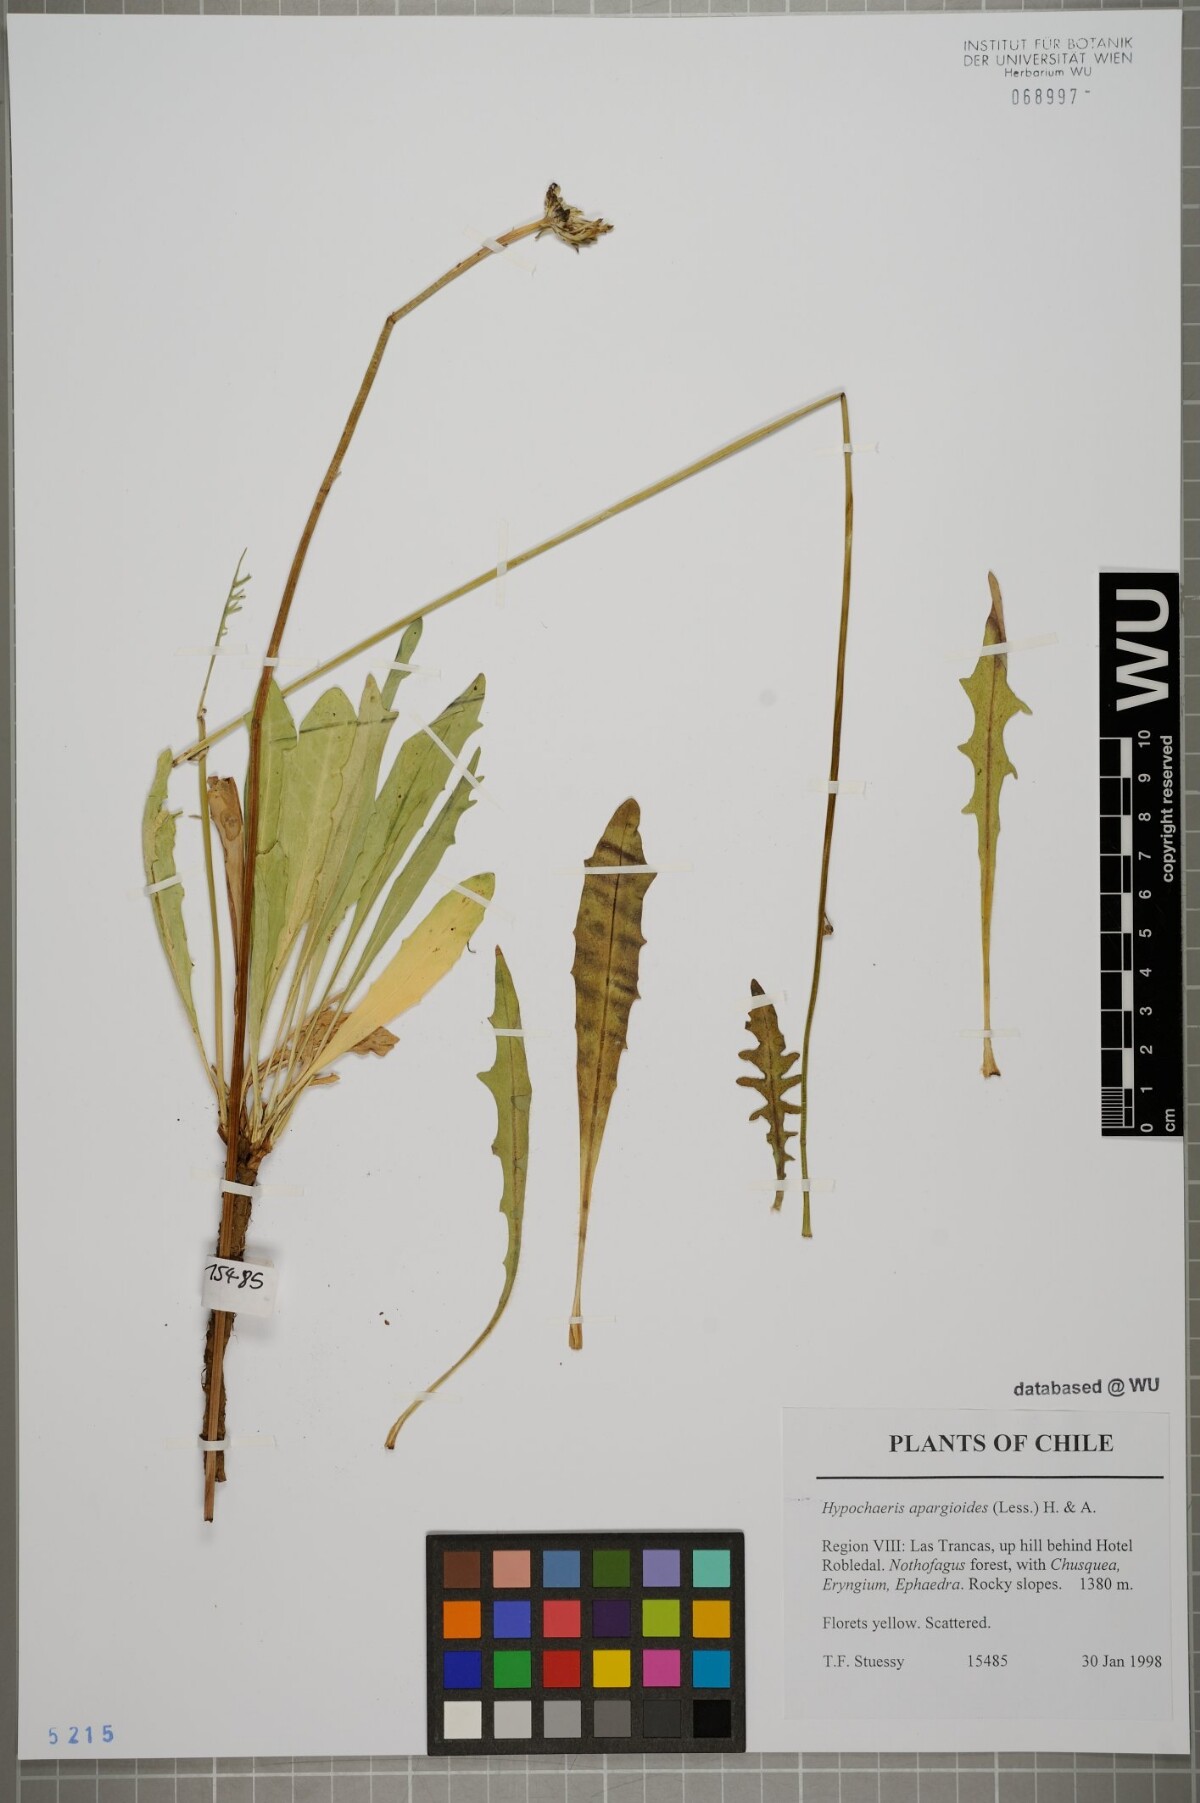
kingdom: Plantae
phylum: Tracheophyta
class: Magnoliopsida
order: Asterales
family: Asteraceae
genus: Hypochaeris
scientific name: Hypochaeris apargioides
